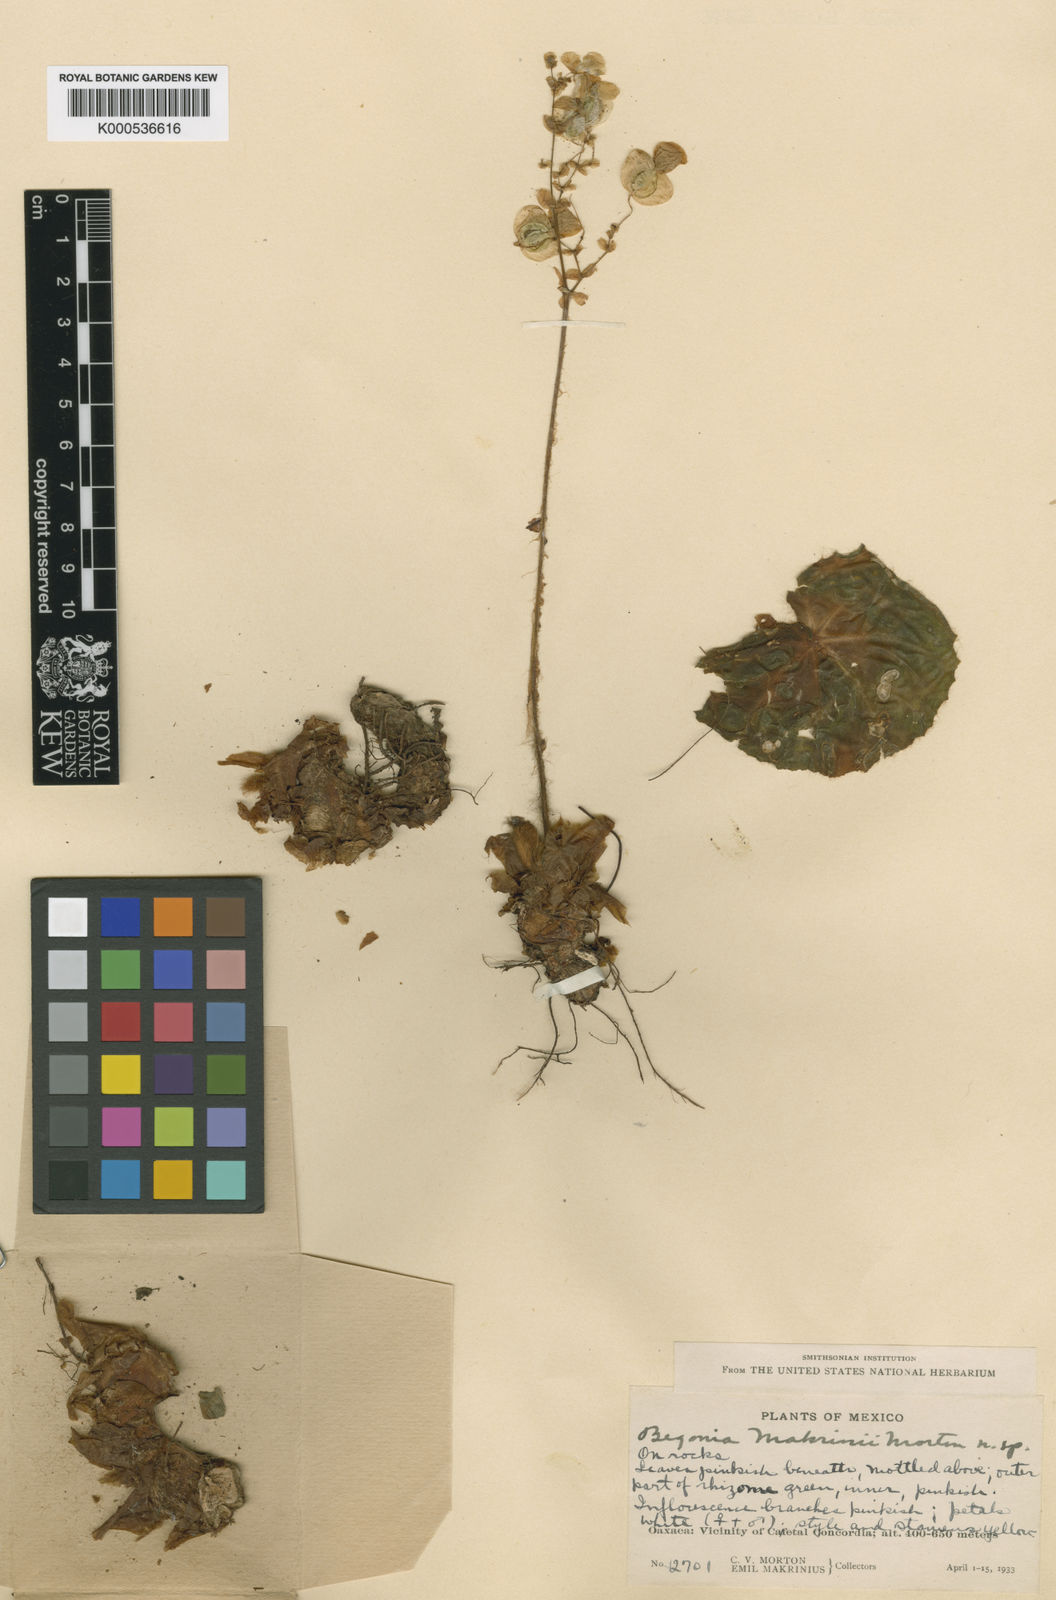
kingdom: Plantae
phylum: Tracheophyta
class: Magnoliopsida
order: Cucurbitales
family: Begoniaceae
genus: Begonia
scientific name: Begonia
